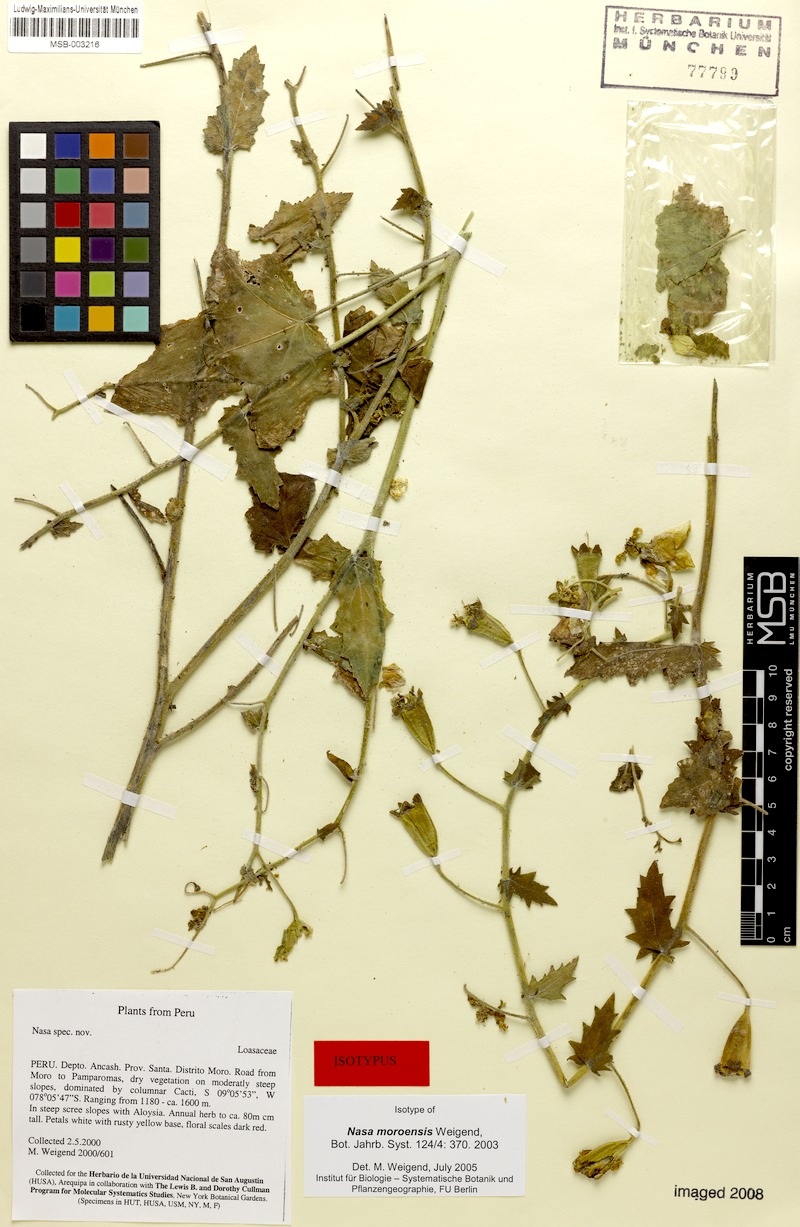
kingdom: Plantae
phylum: Tracheophyta
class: Magnoliopsida
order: Cornales
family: Loasaceae
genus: Nasa
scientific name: Nasa moroensis
